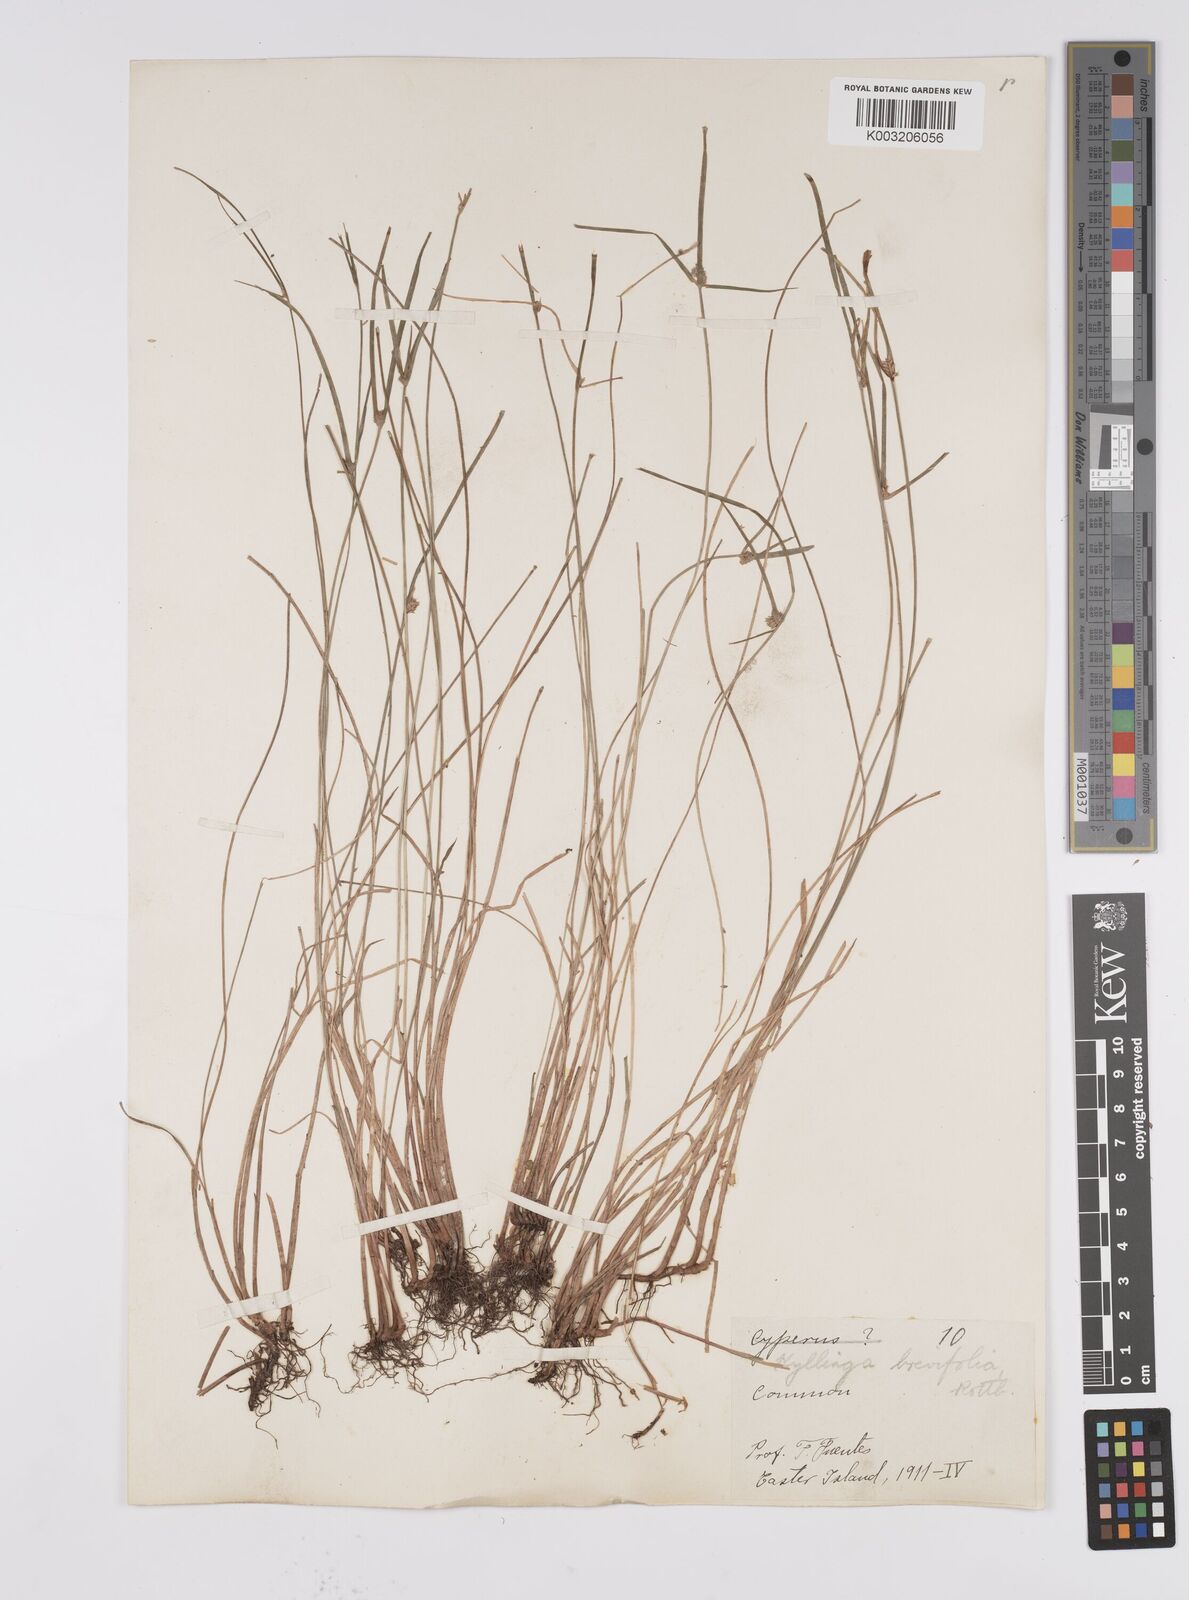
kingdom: Plantae
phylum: Tracheophyta
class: Liliopsida
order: Poales
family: Cyperaceae
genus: Cyperus
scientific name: Cyperus brevifolius
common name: Globe kyllinga
